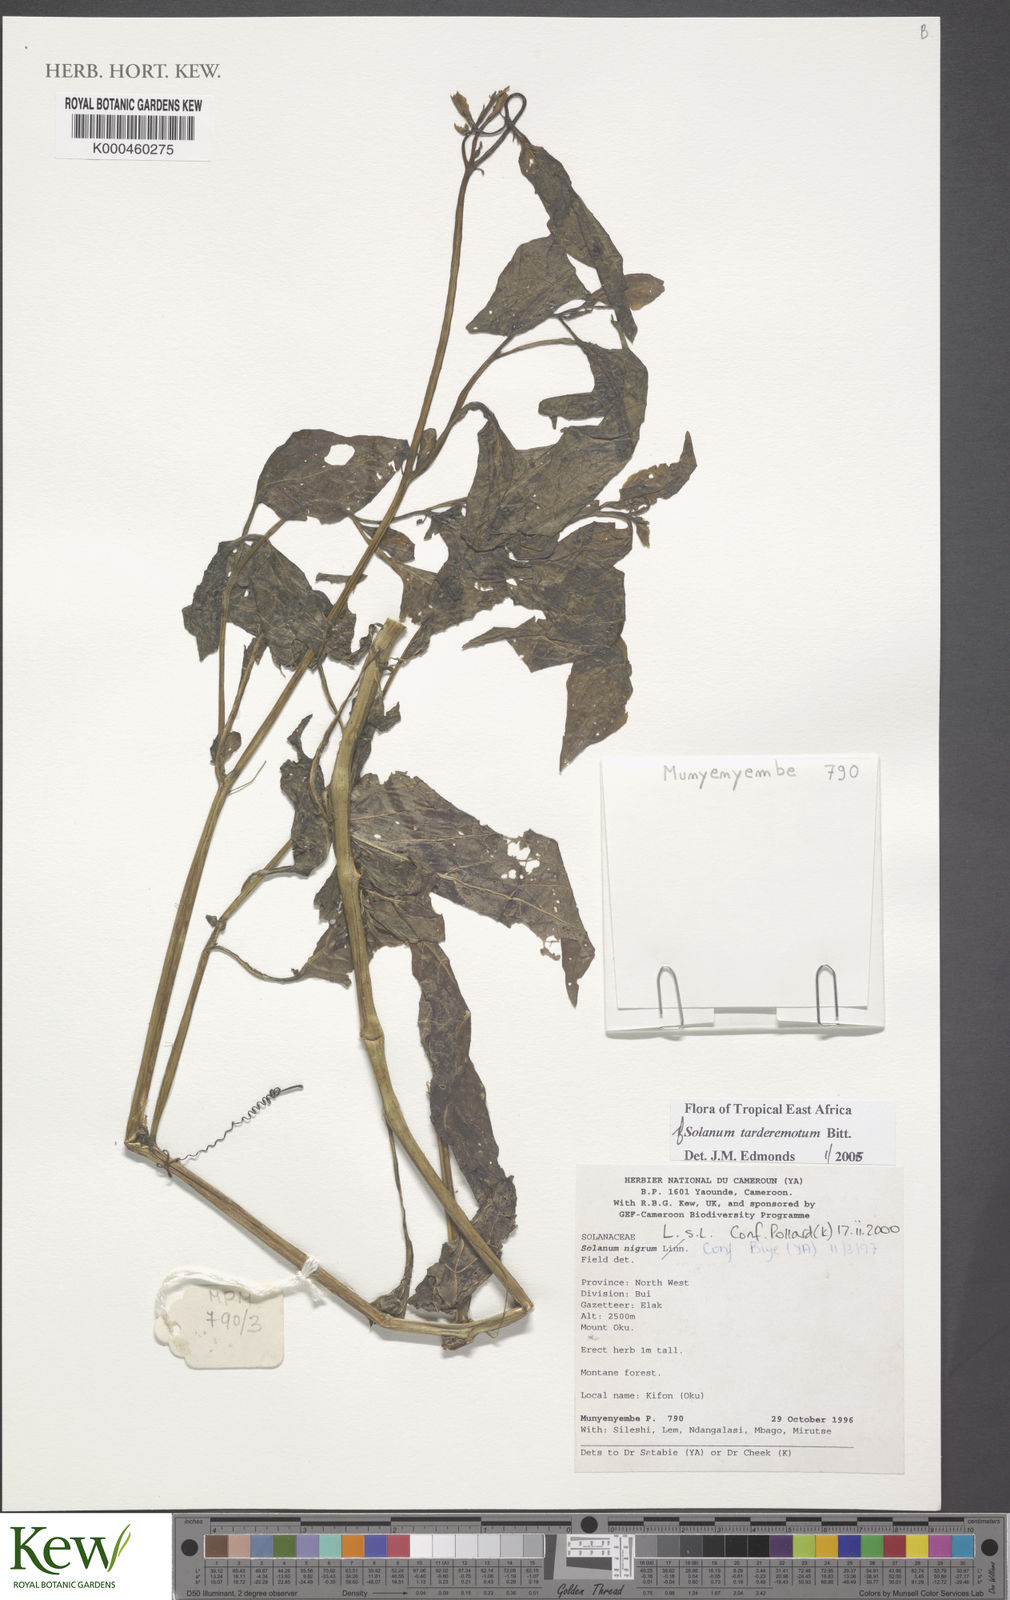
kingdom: Plantae
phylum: Tracheophyta
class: Magnoliopsida
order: Solanales
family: Solanaceae
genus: Solanum
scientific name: Solanum tarderemotum
